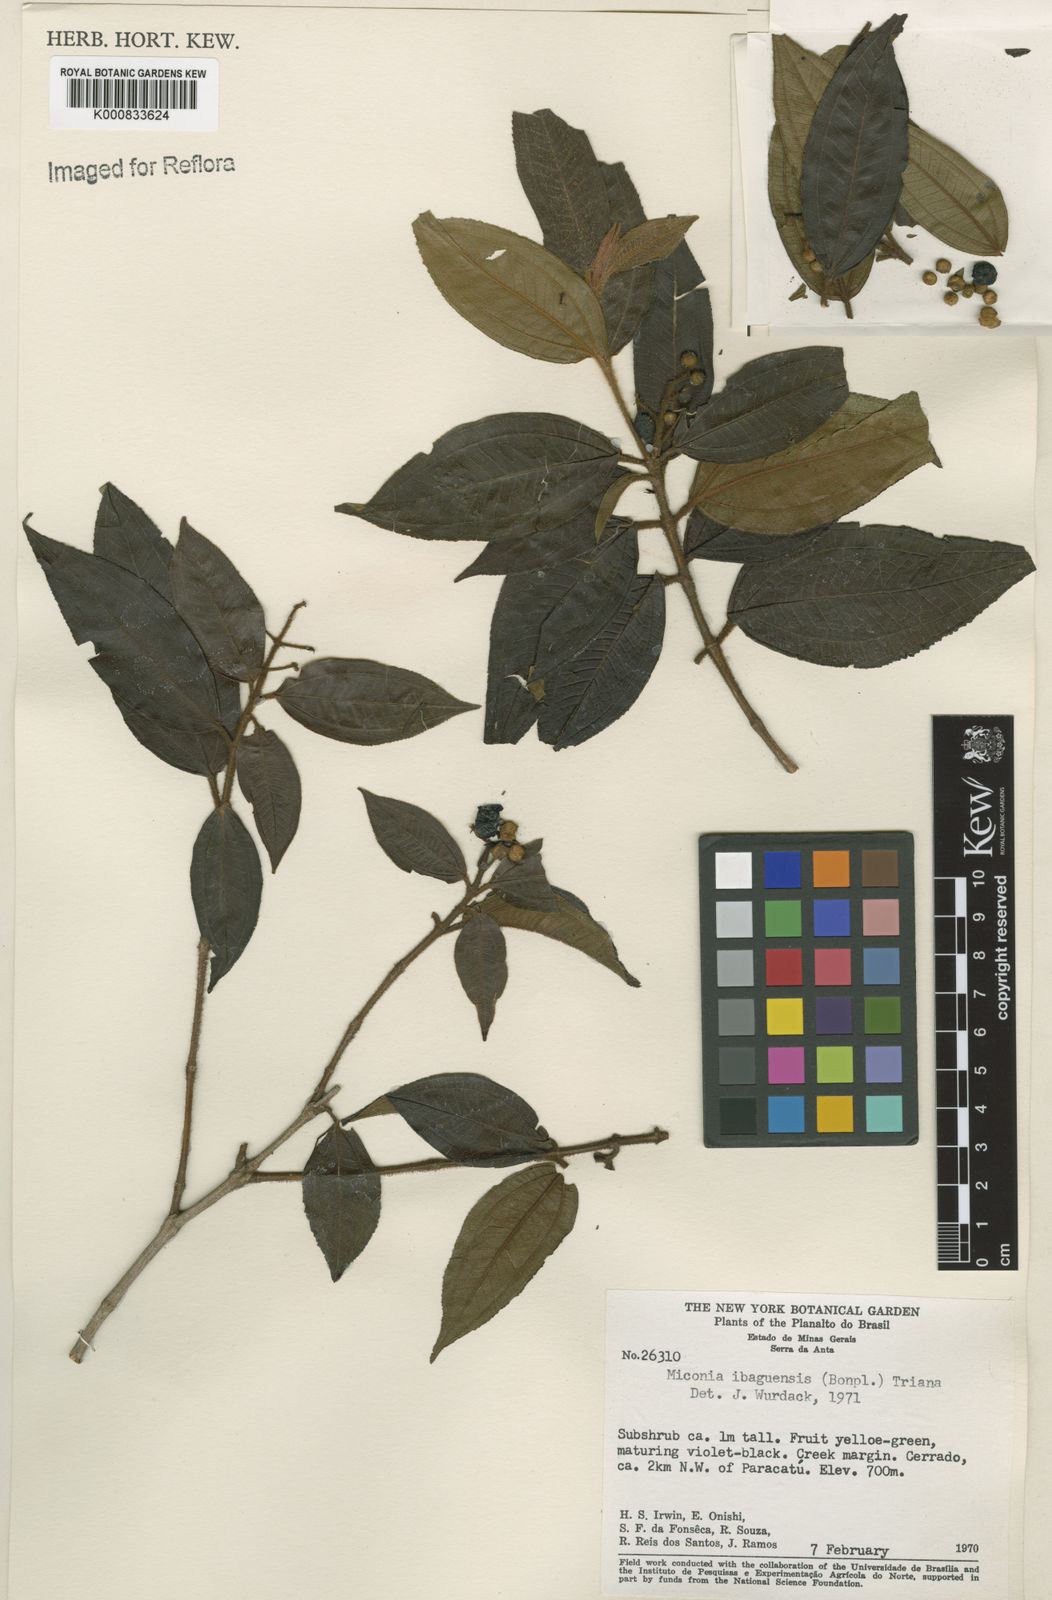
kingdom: Plantae
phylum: Tracheophyta
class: Magnoliopsida
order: Myrtales
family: Melastomataceae
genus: Miconia
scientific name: Miconia ibaguensis
